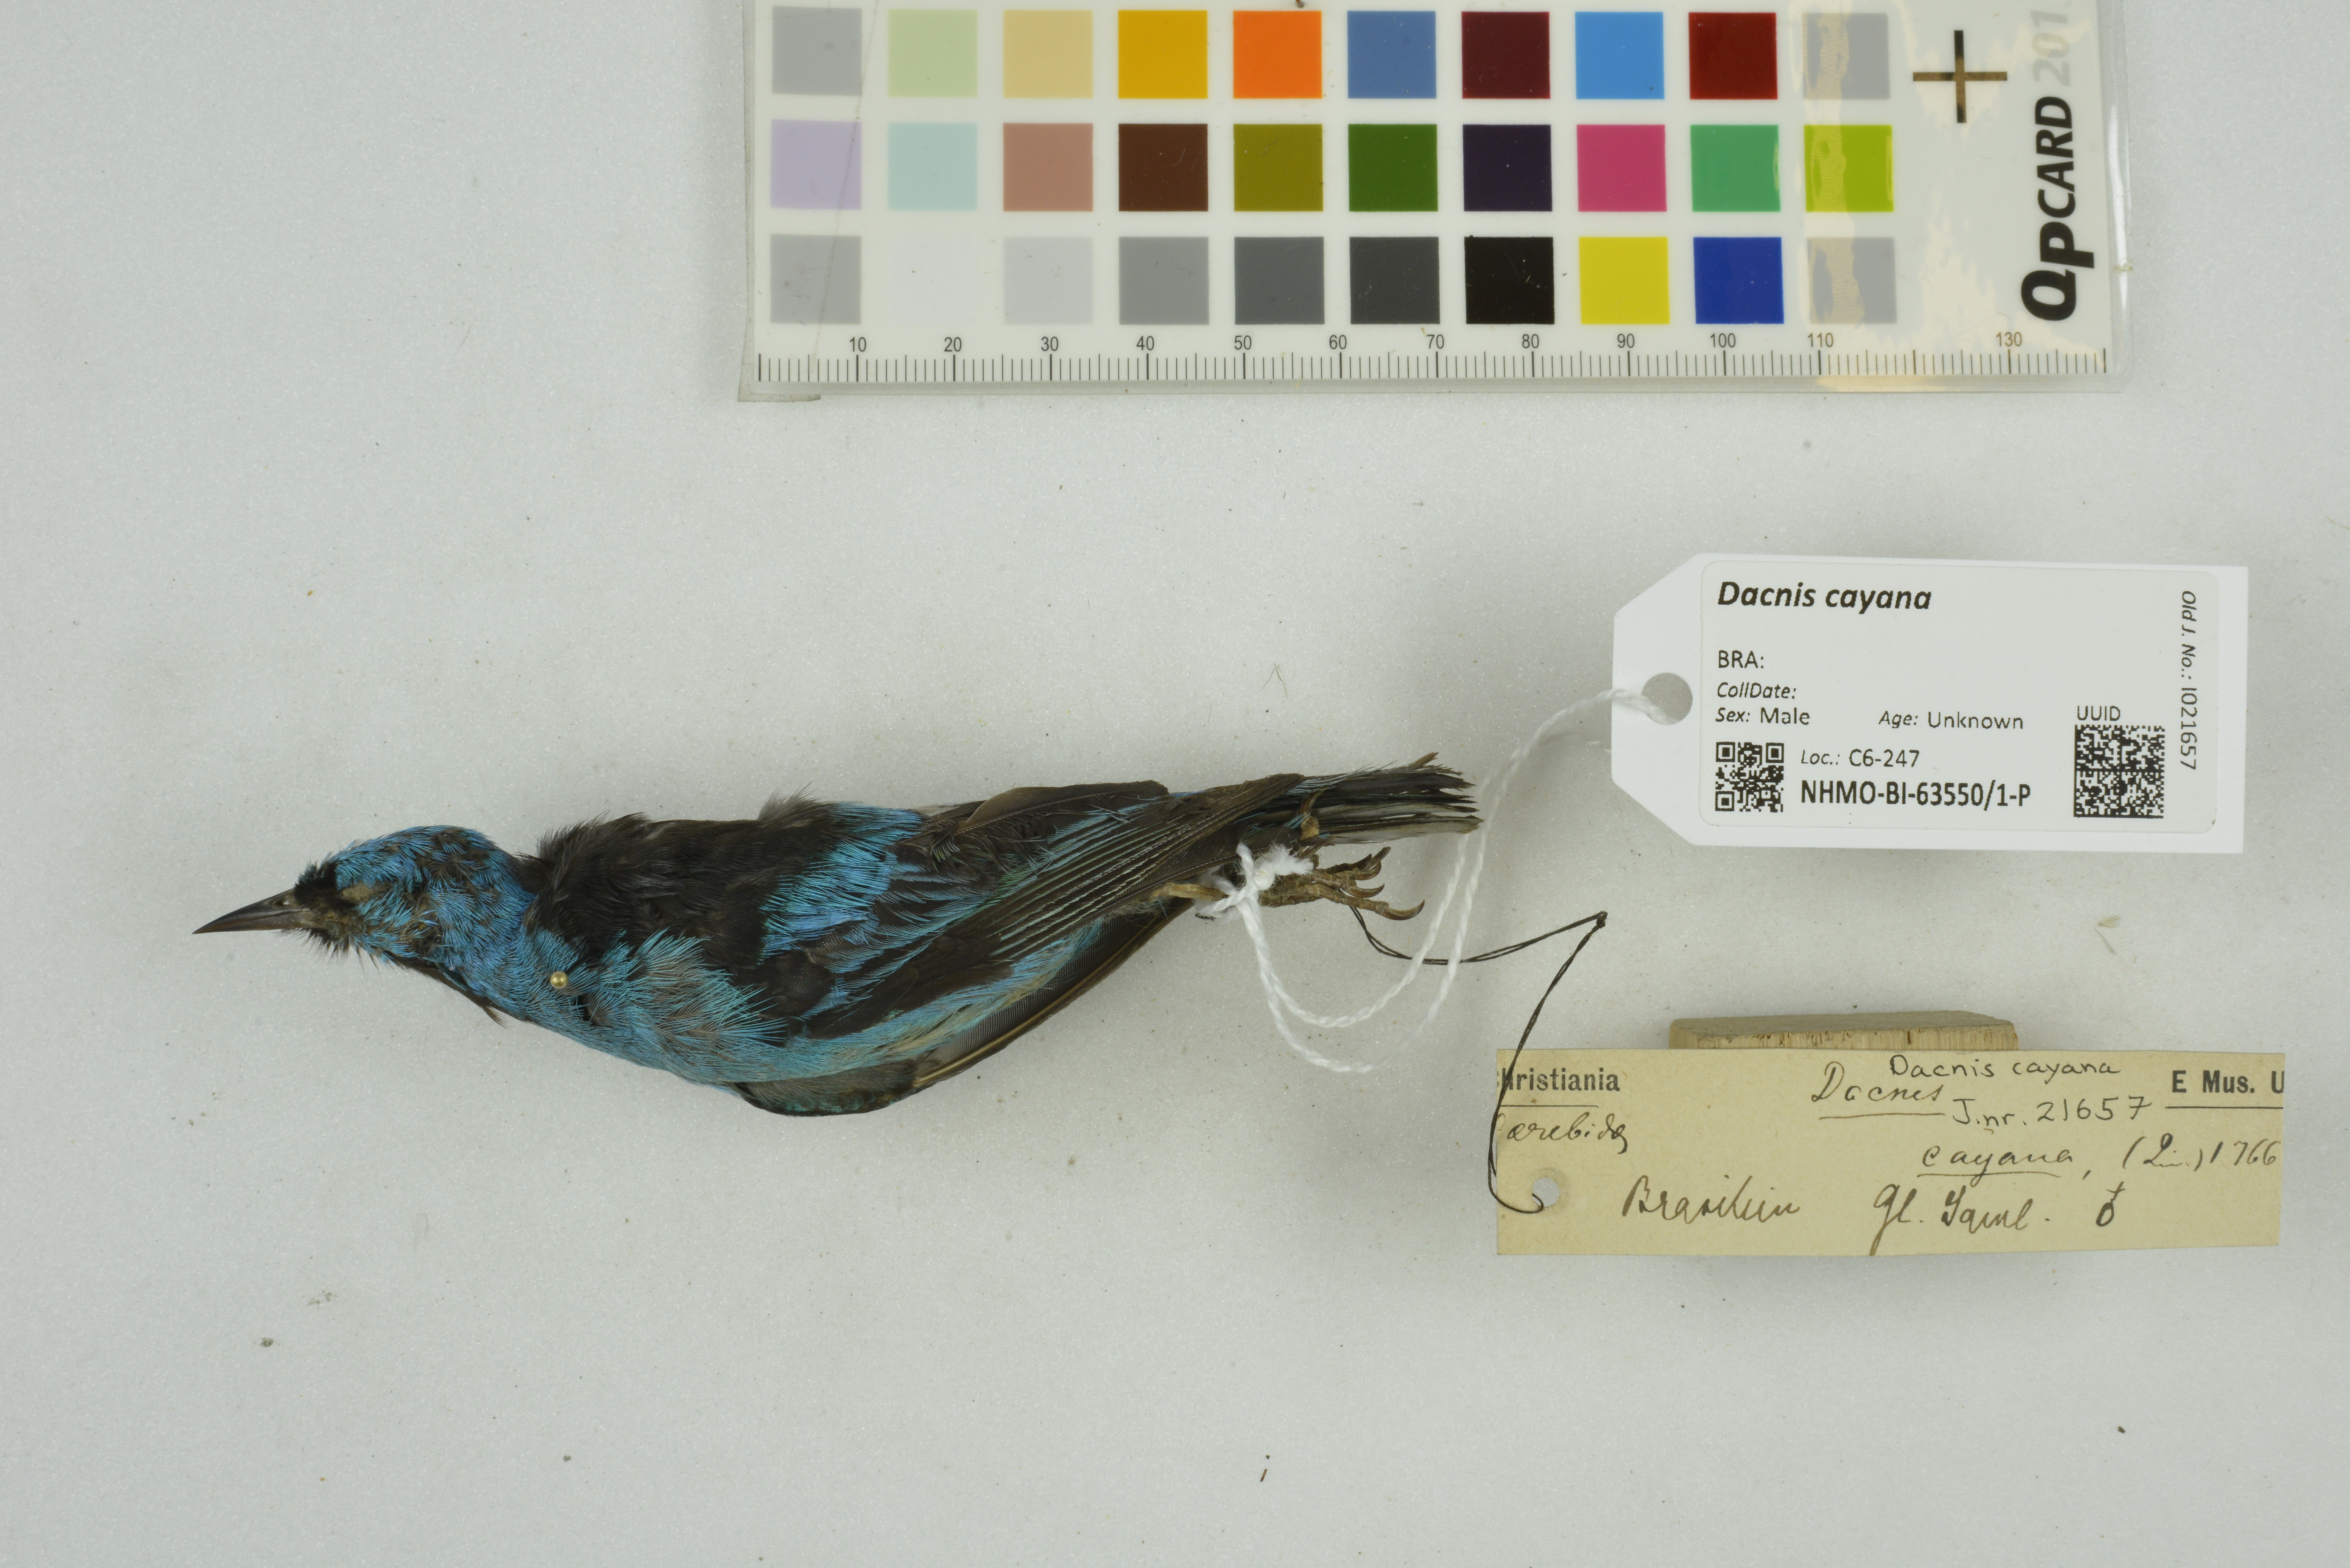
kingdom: Animalia
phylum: Chordata
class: Aves
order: Passeriformes
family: Thraupidae
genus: Dacnis
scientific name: Dacnis cayana
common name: Blue dacnis
